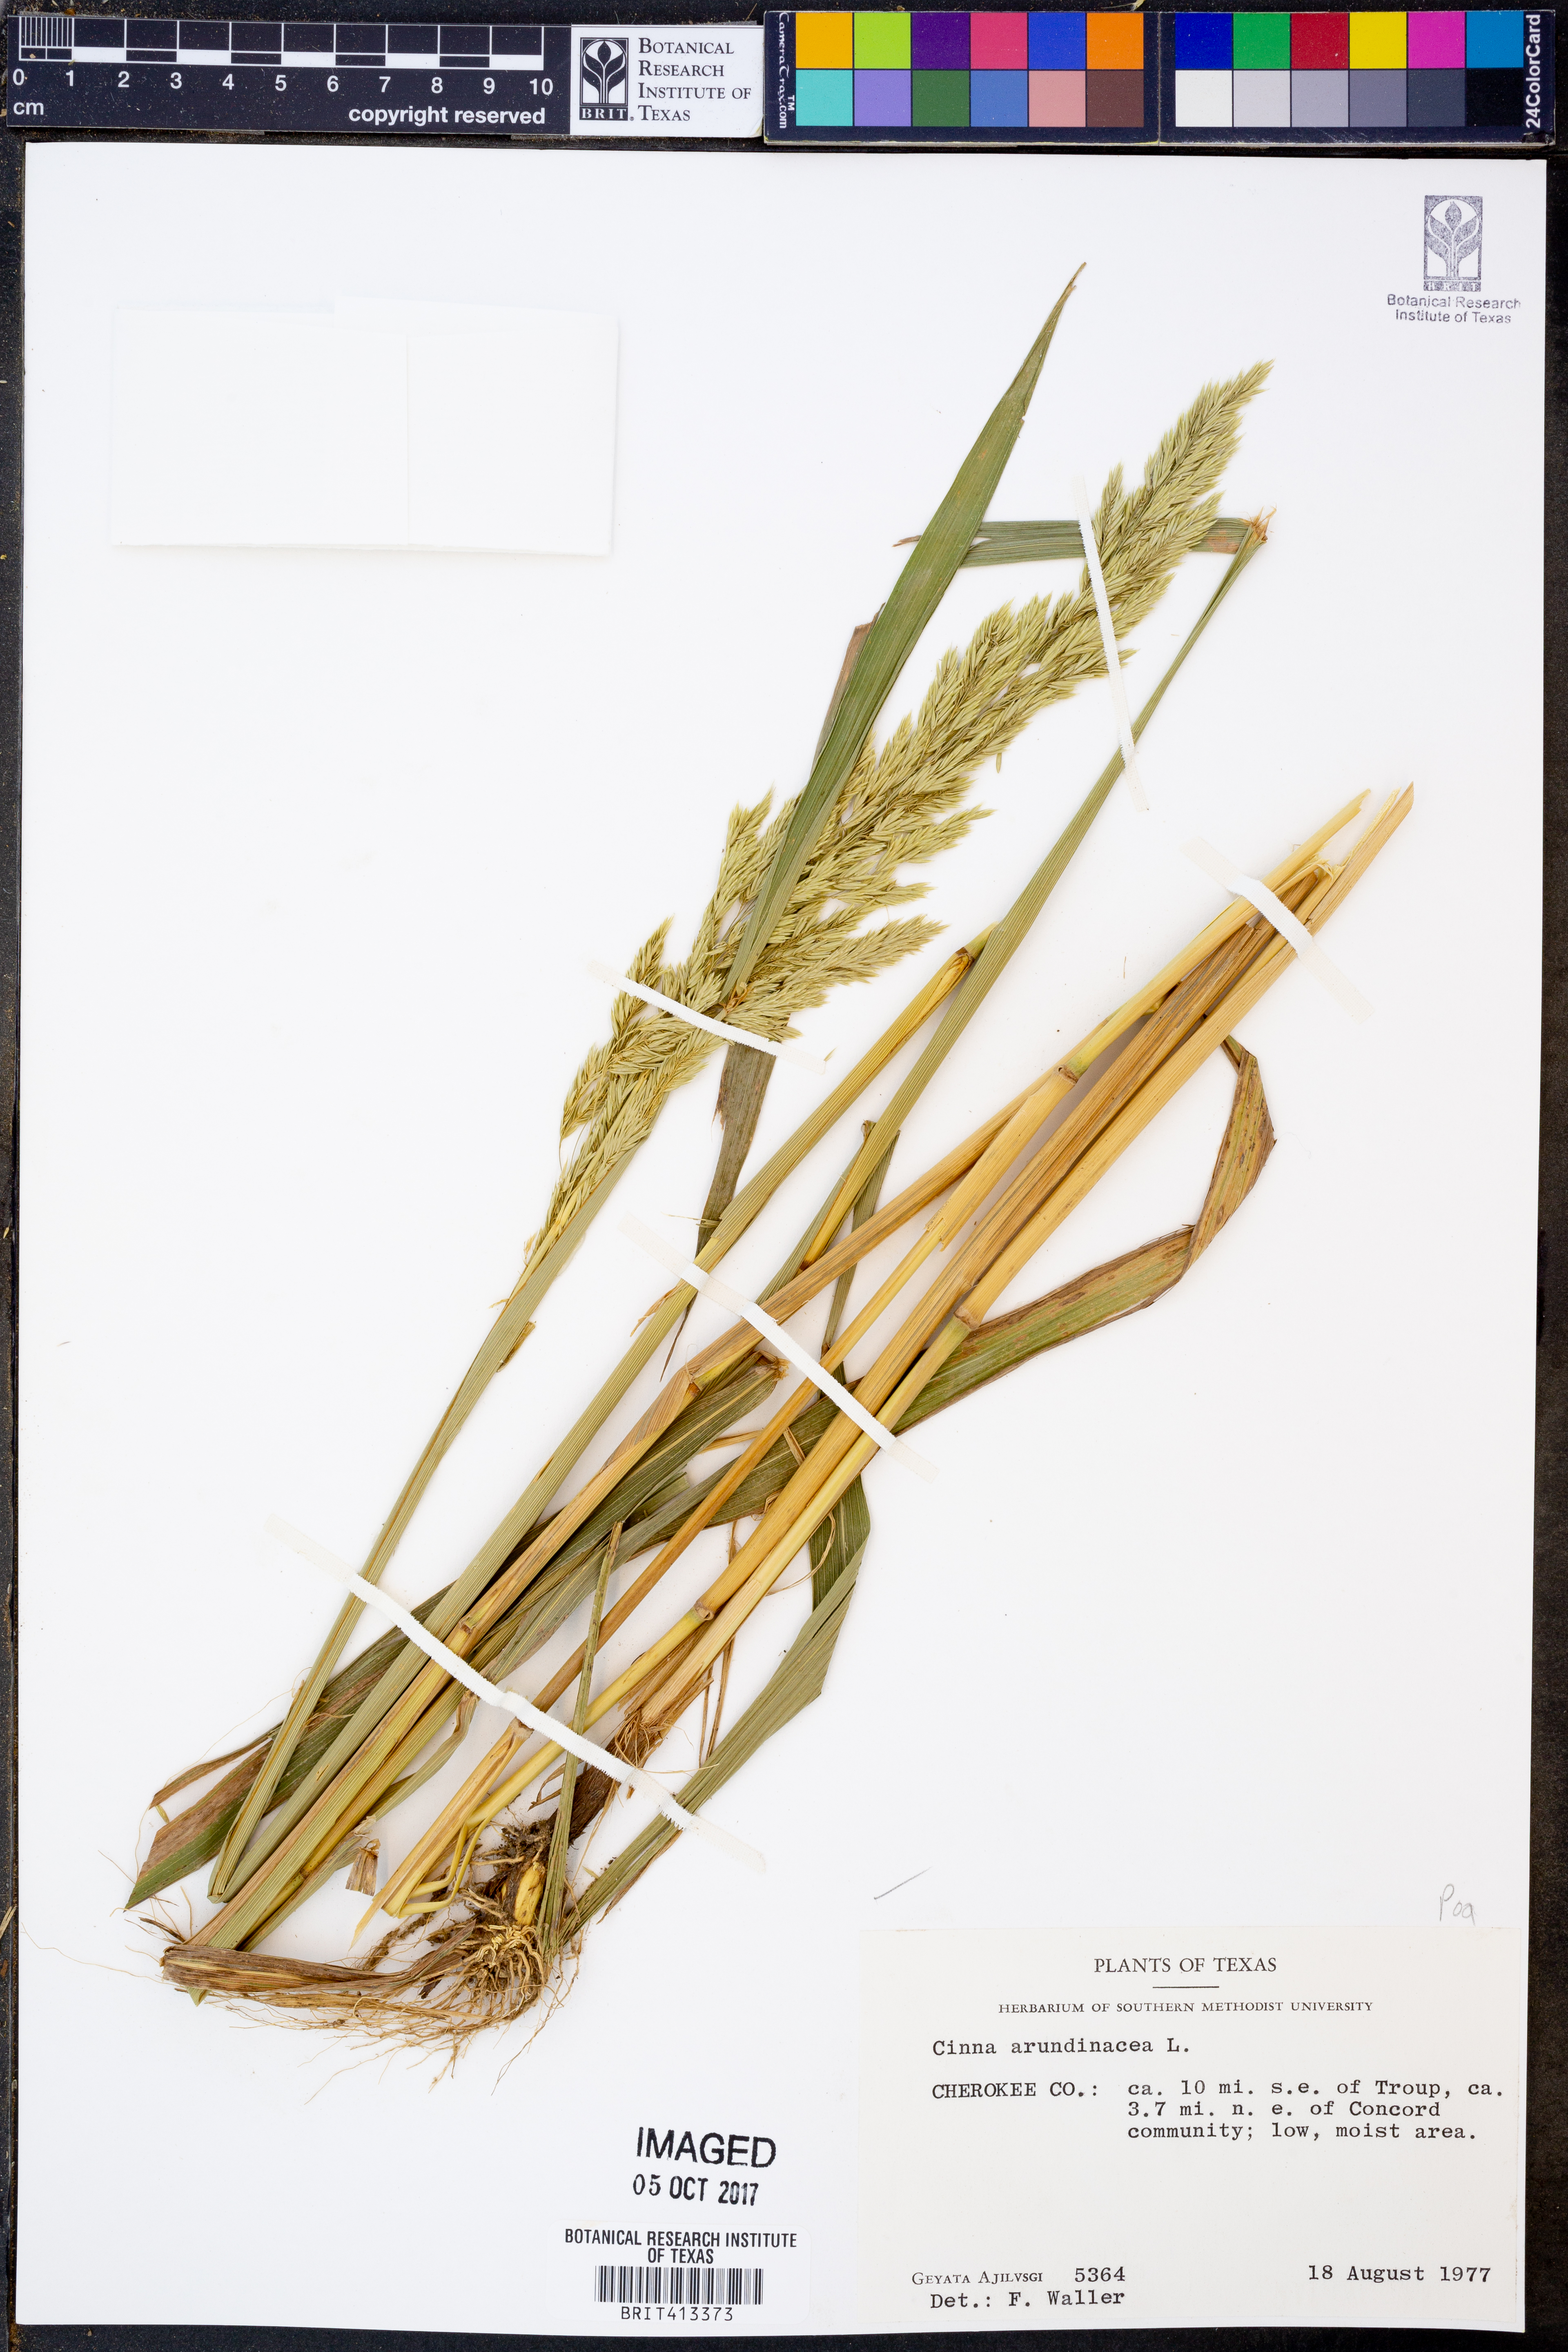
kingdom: Plantae
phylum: Tracheophyta
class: Liliopsida
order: Poales
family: Poaceae
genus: Cinna
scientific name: Cinna arundinacea
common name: Stout woodreed
